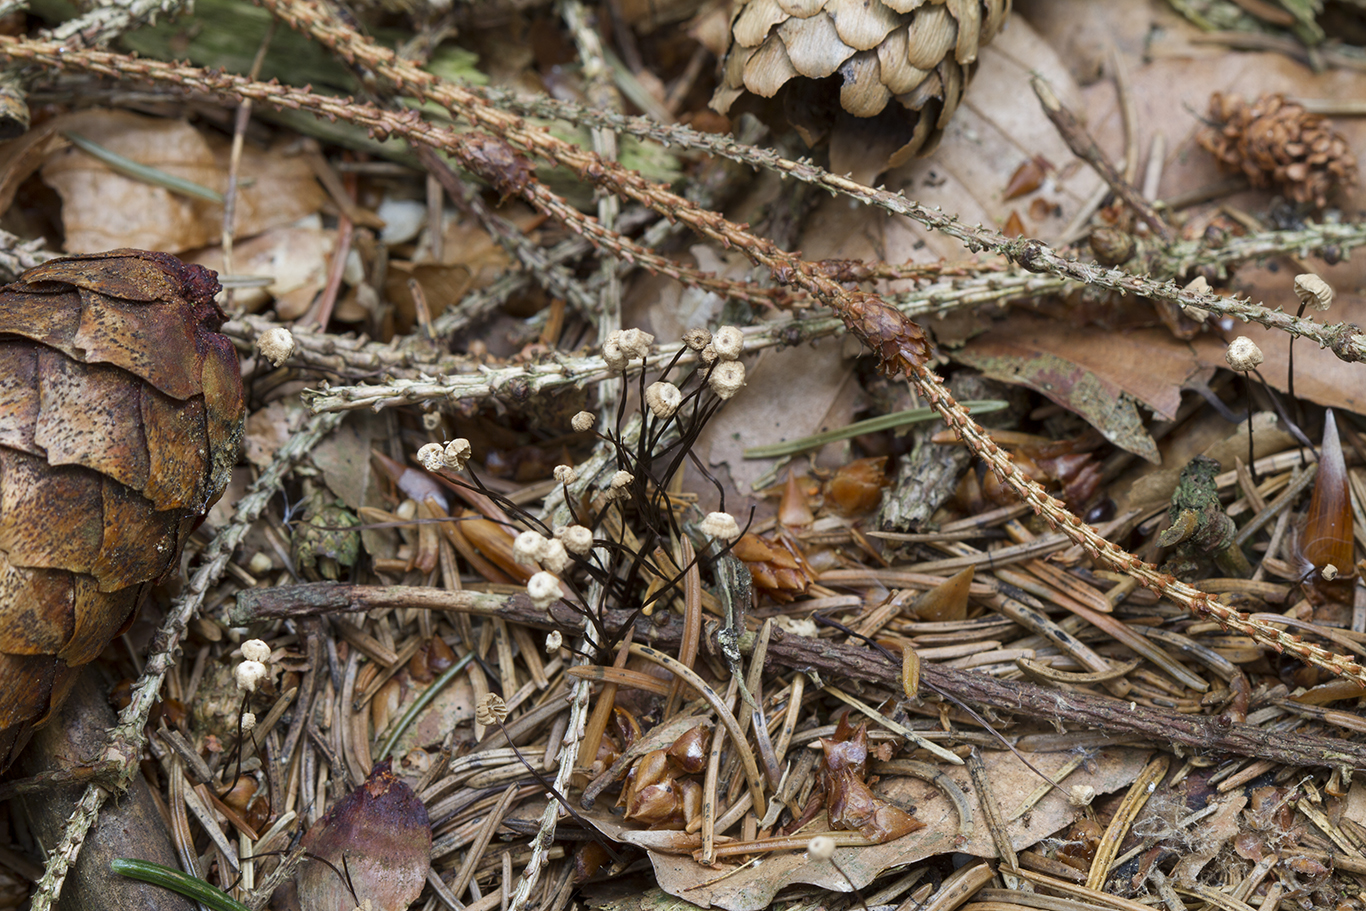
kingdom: Fungi
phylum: Basidiomycota
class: Agaricomycetes
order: Agaricales
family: Marasmiaceae
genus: Marasmius
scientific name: Marasmius wettsteinii
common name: Wettsteins bruskhat
